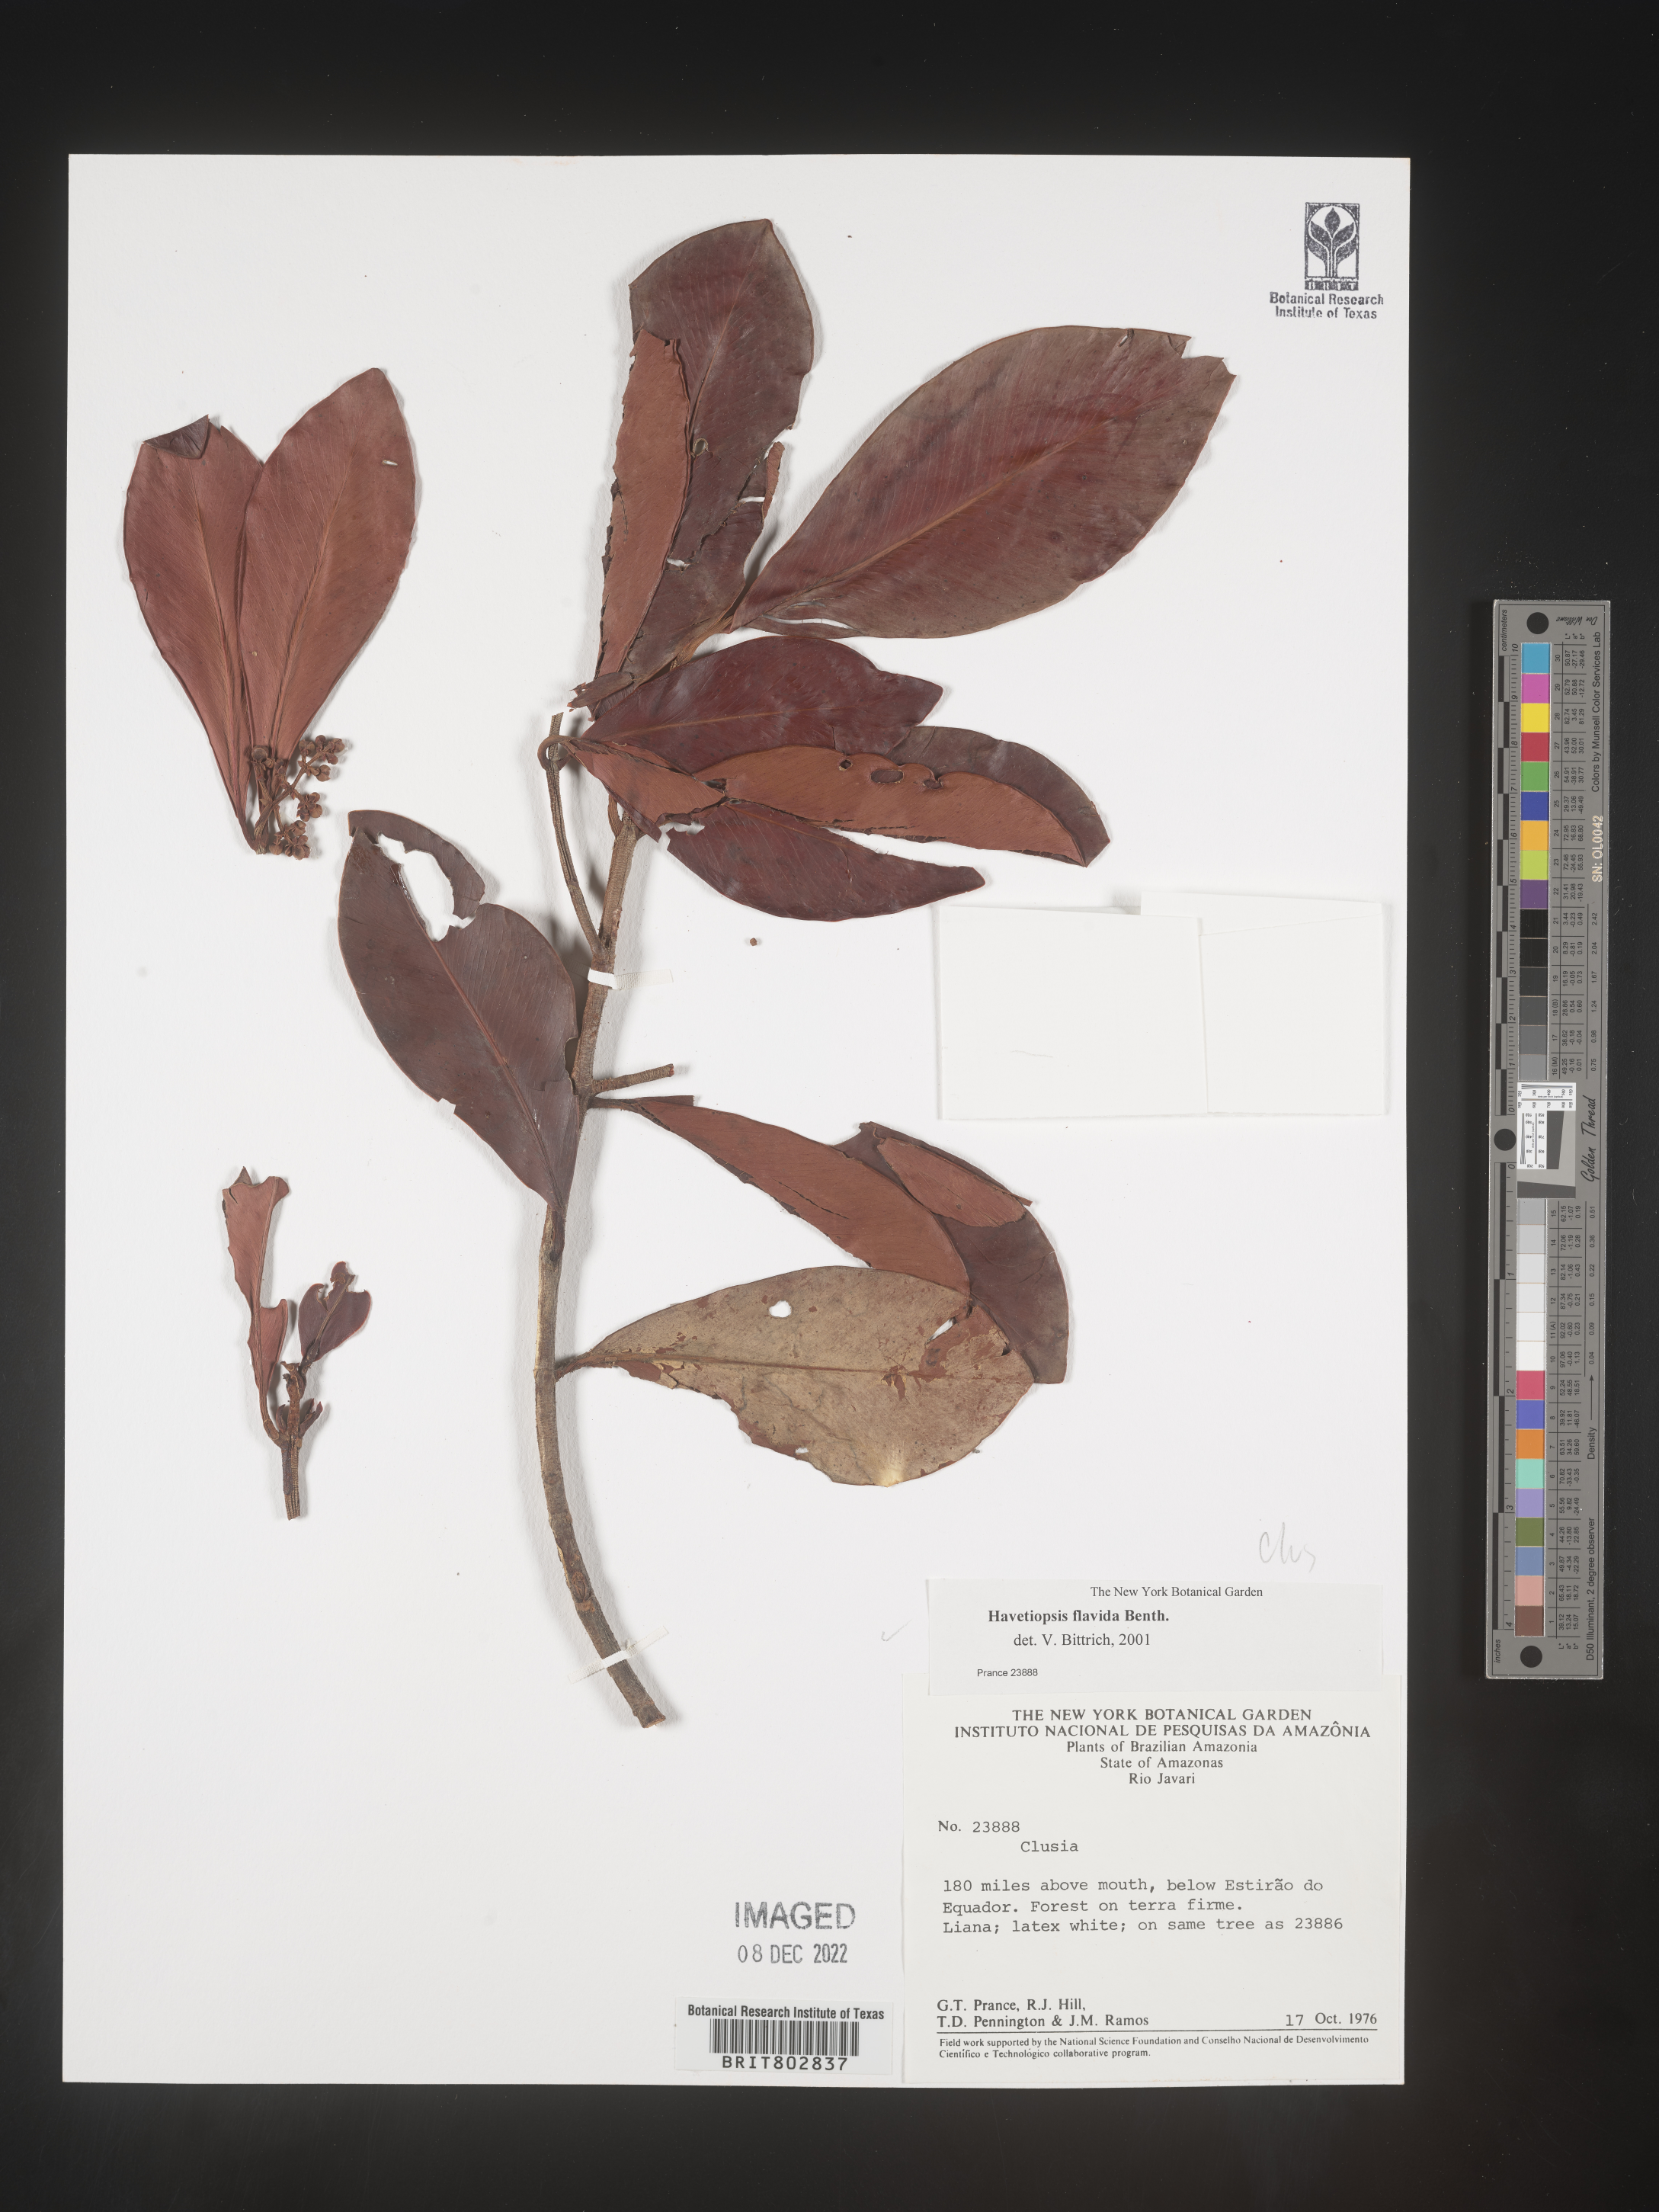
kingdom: Plantae
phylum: Tracheophyta
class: Magnoliopsida
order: Malpighiales
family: Clusiaceae
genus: Havetiopsis
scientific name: Havetiopsis
